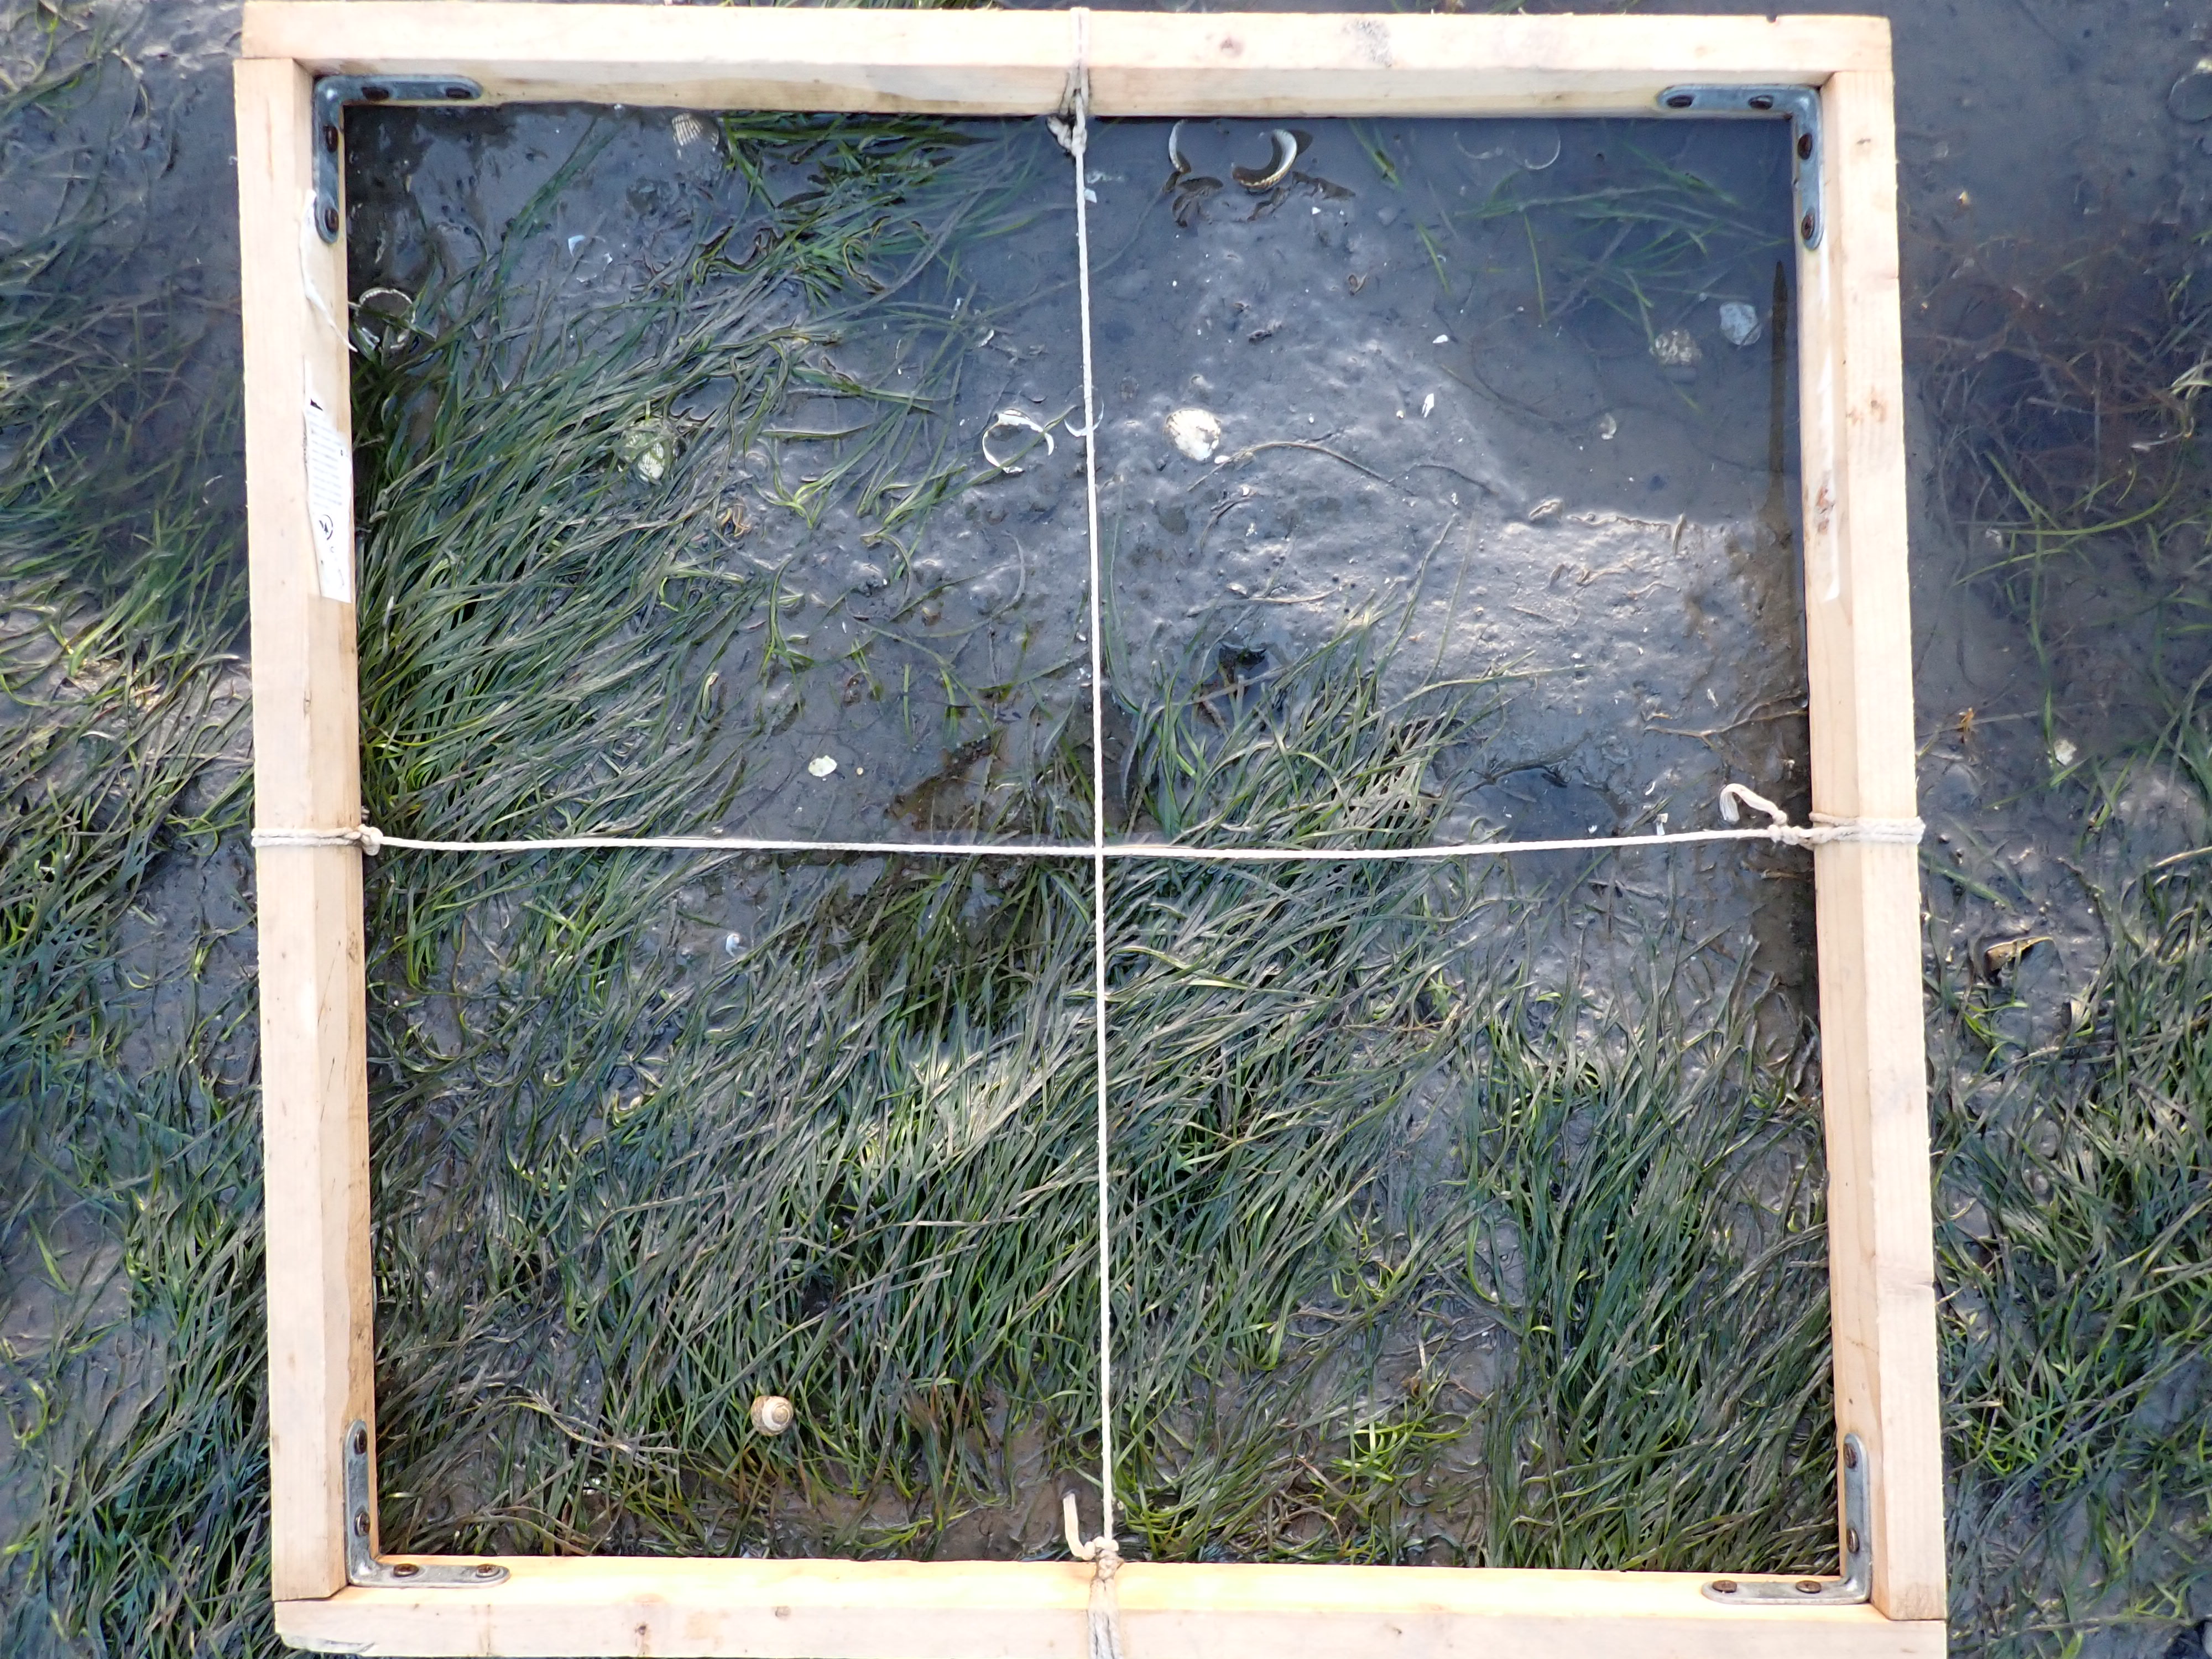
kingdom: Plantae
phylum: Tracheophyta
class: Liliopsida
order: Alismatales
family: Zosteraceae
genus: Zostera
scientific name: Zostera noltii
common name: Dwarf eelgrass
